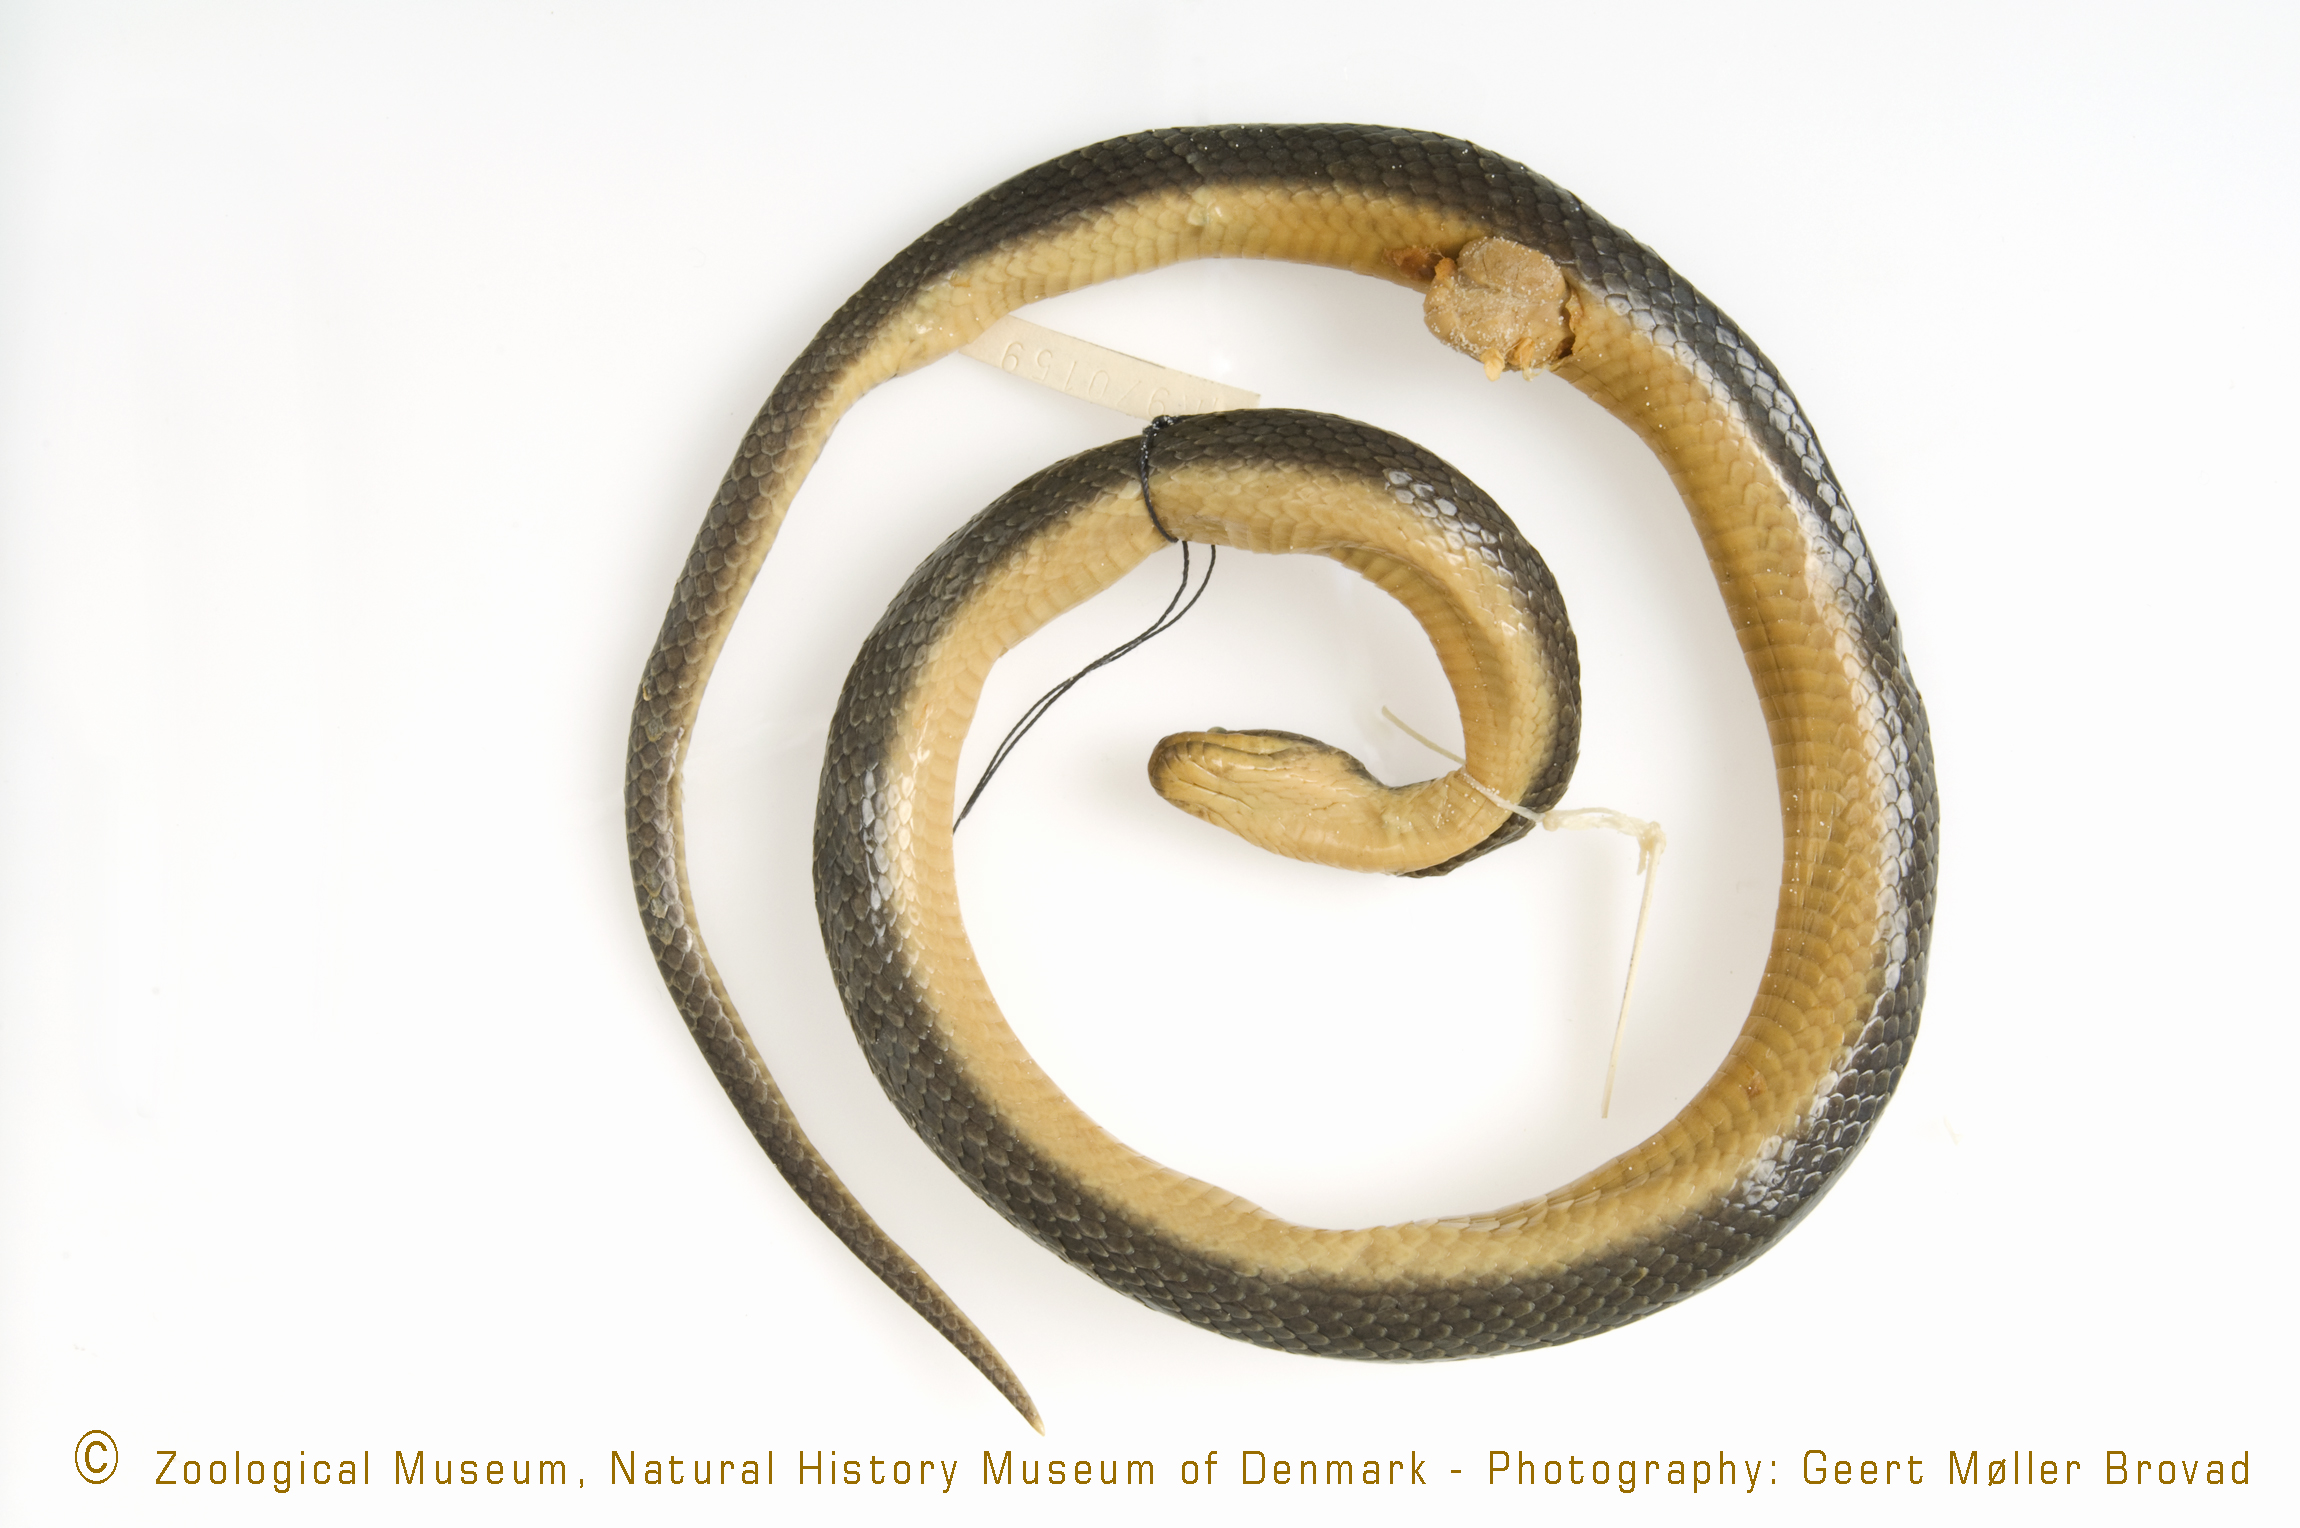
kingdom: Animalia
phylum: Chordata
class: Squamata
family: Lamprophiidae
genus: Lycodonomorphus
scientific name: Lycodonomorphus bicolor
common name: Tanganyika water snake
